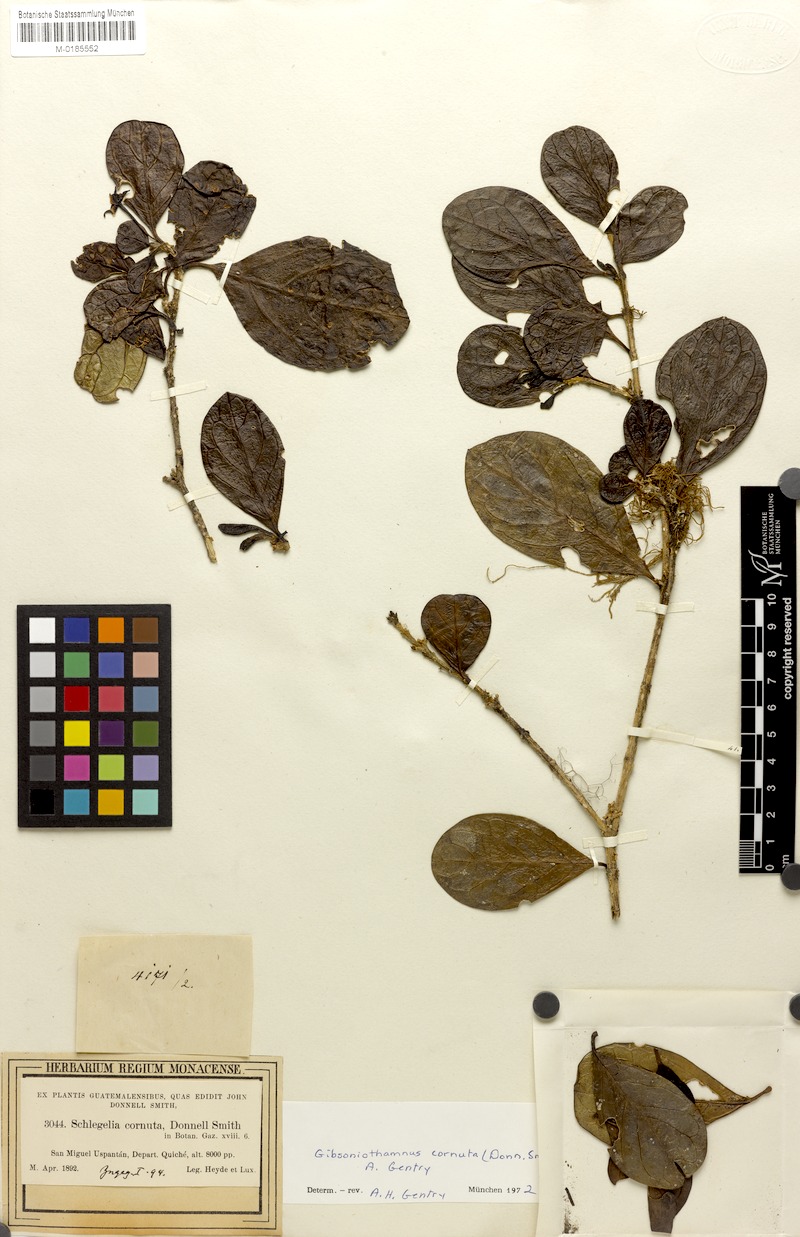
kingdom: Plantae
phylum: Tracheophyta
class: Magnoliopsida
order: Lamiales
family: Schlegeliaceae
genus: Gibsoniothamnus
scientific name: Gibsoniothamnus cornutus
